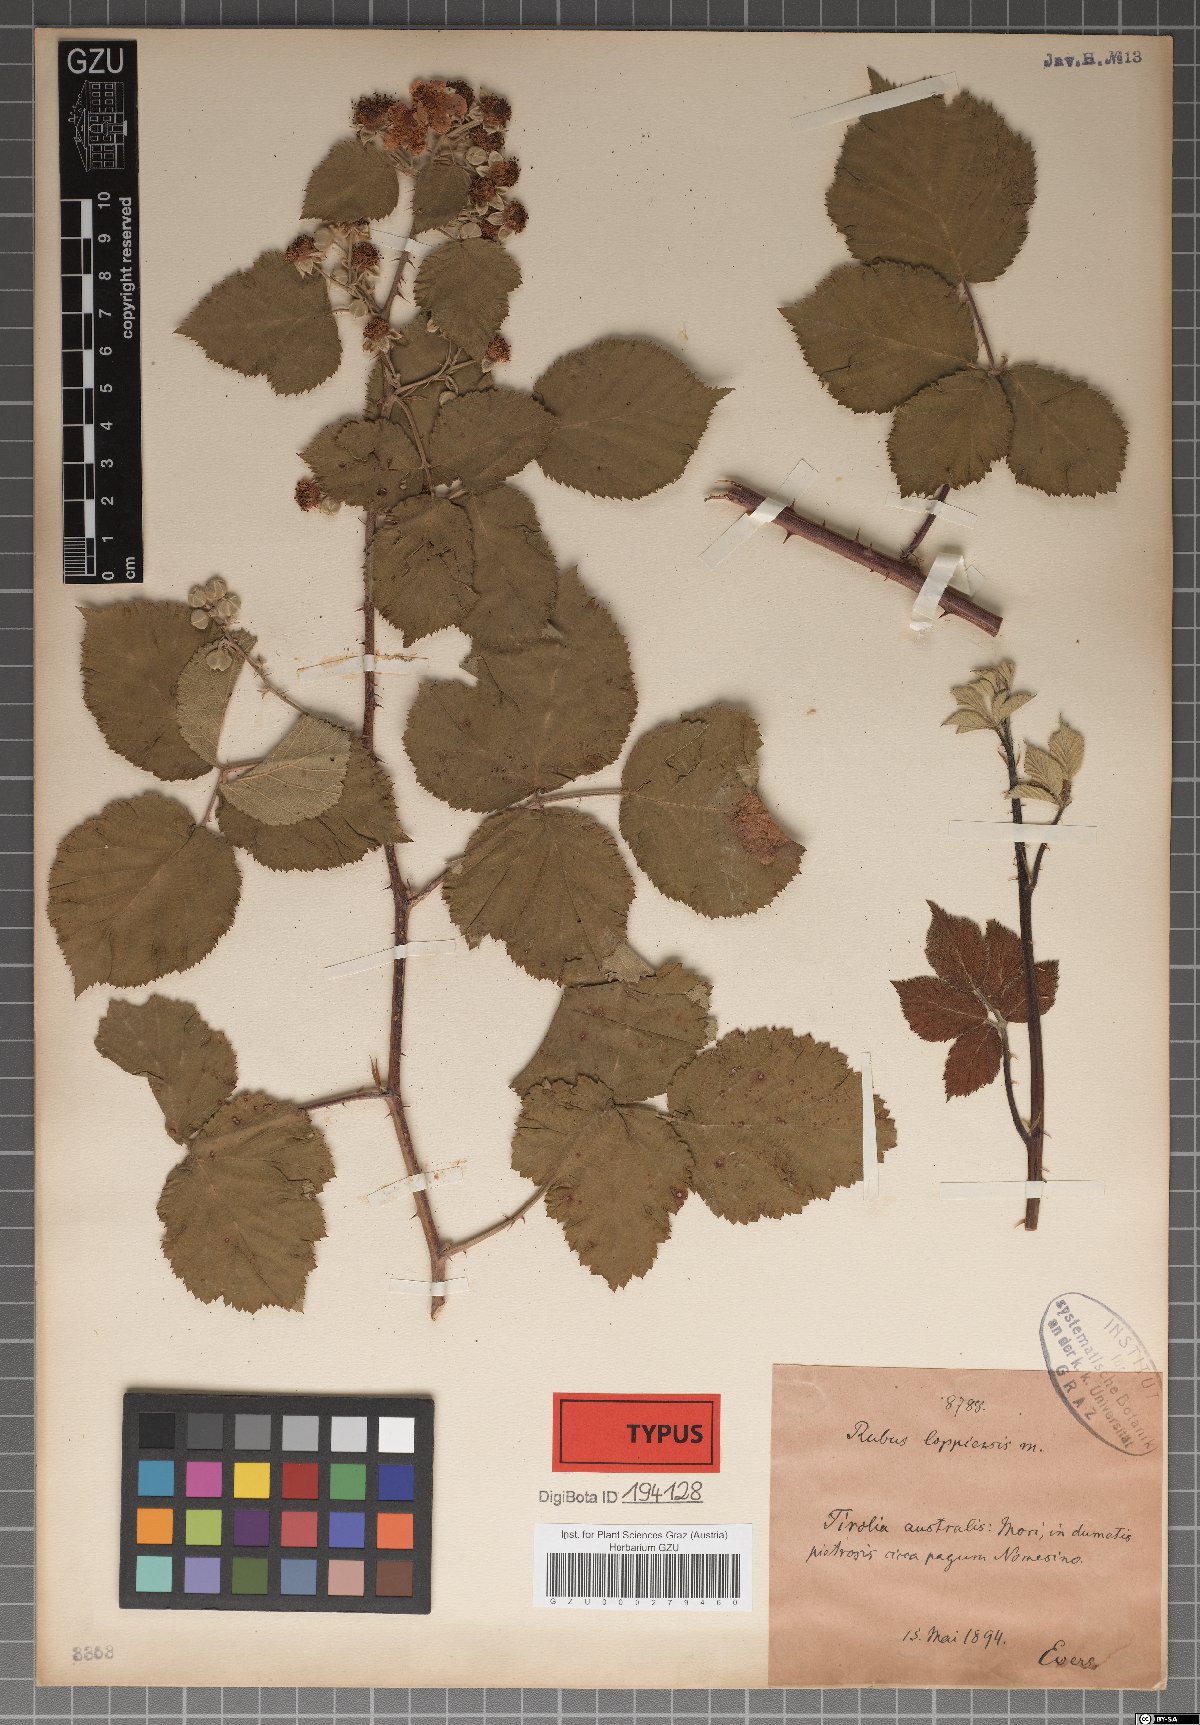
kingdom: Plantae
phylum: Tracheophyta
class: Magnoliopsida
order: Rosales
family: Rosaceae
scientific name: Rosaceae
